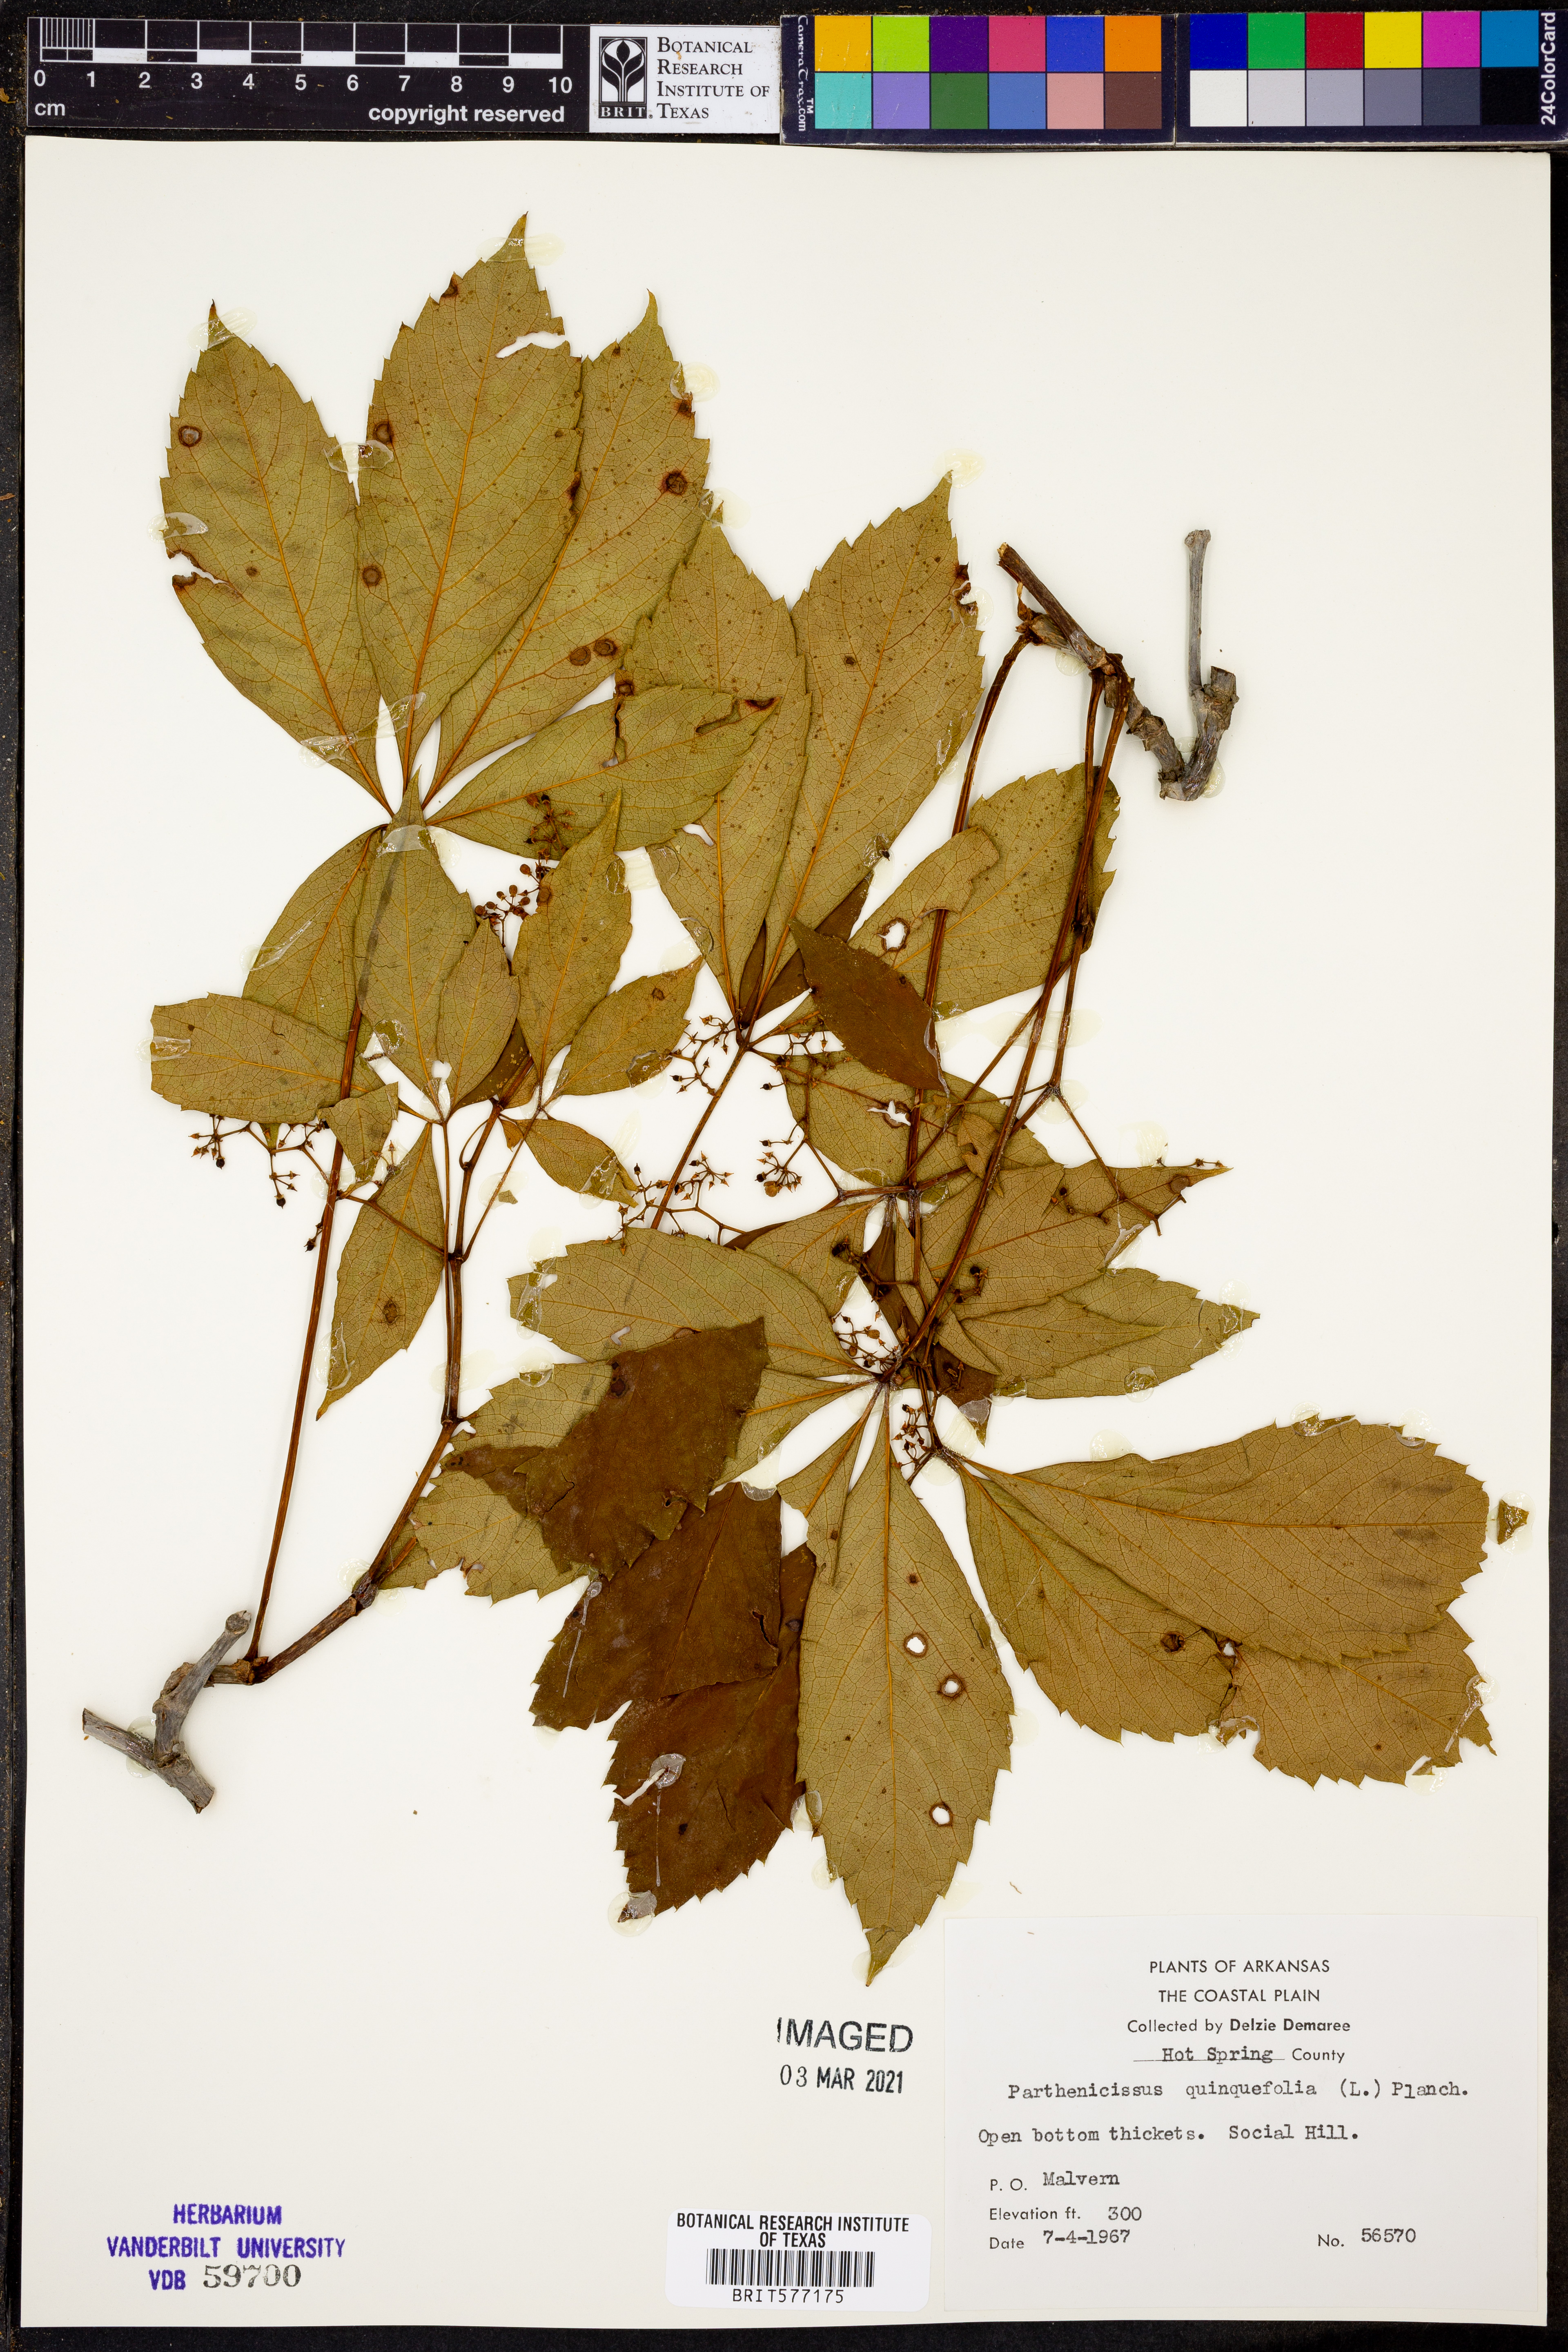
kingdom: Plantae
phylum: Tracheophyta
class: Magnoliopsida
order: Vitales
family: Vitaceae
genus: Parthenocissus
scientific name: Parthenocissus quinquefolia
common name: Virginia-creeper
